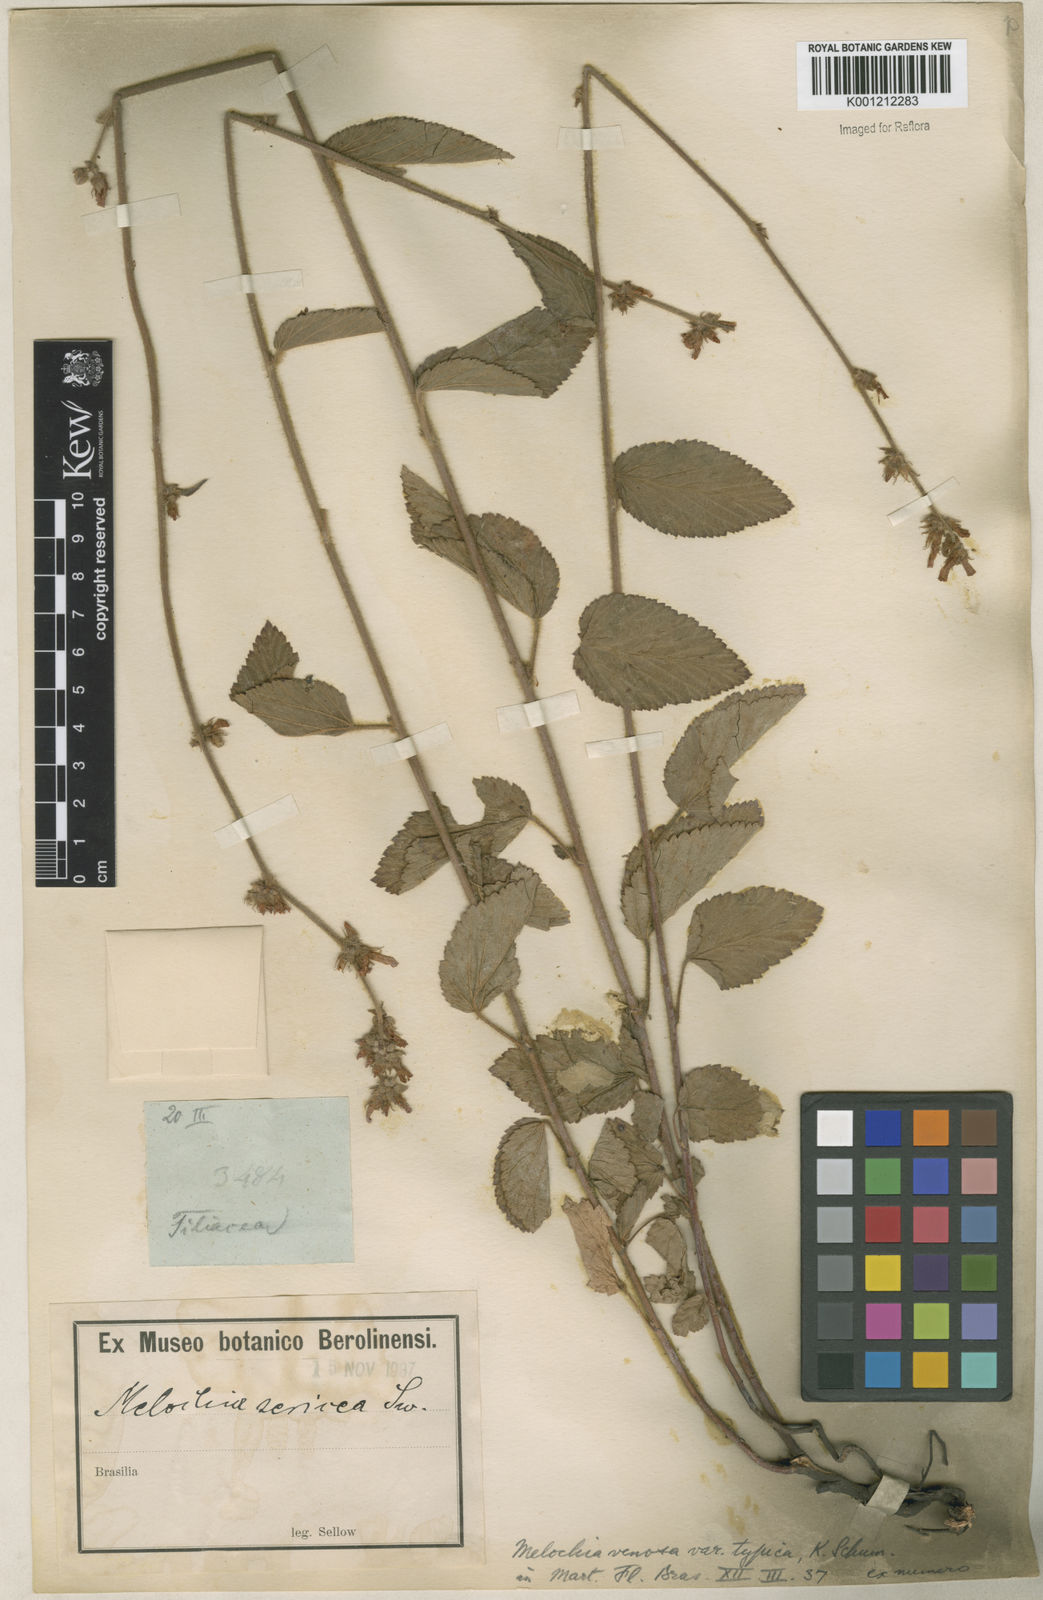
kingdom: Plantae
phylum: Tracheophyta
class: Magnoliopsida
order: Malvales
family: Malvaceae
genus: Melochia
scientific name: Melochia pilosa
